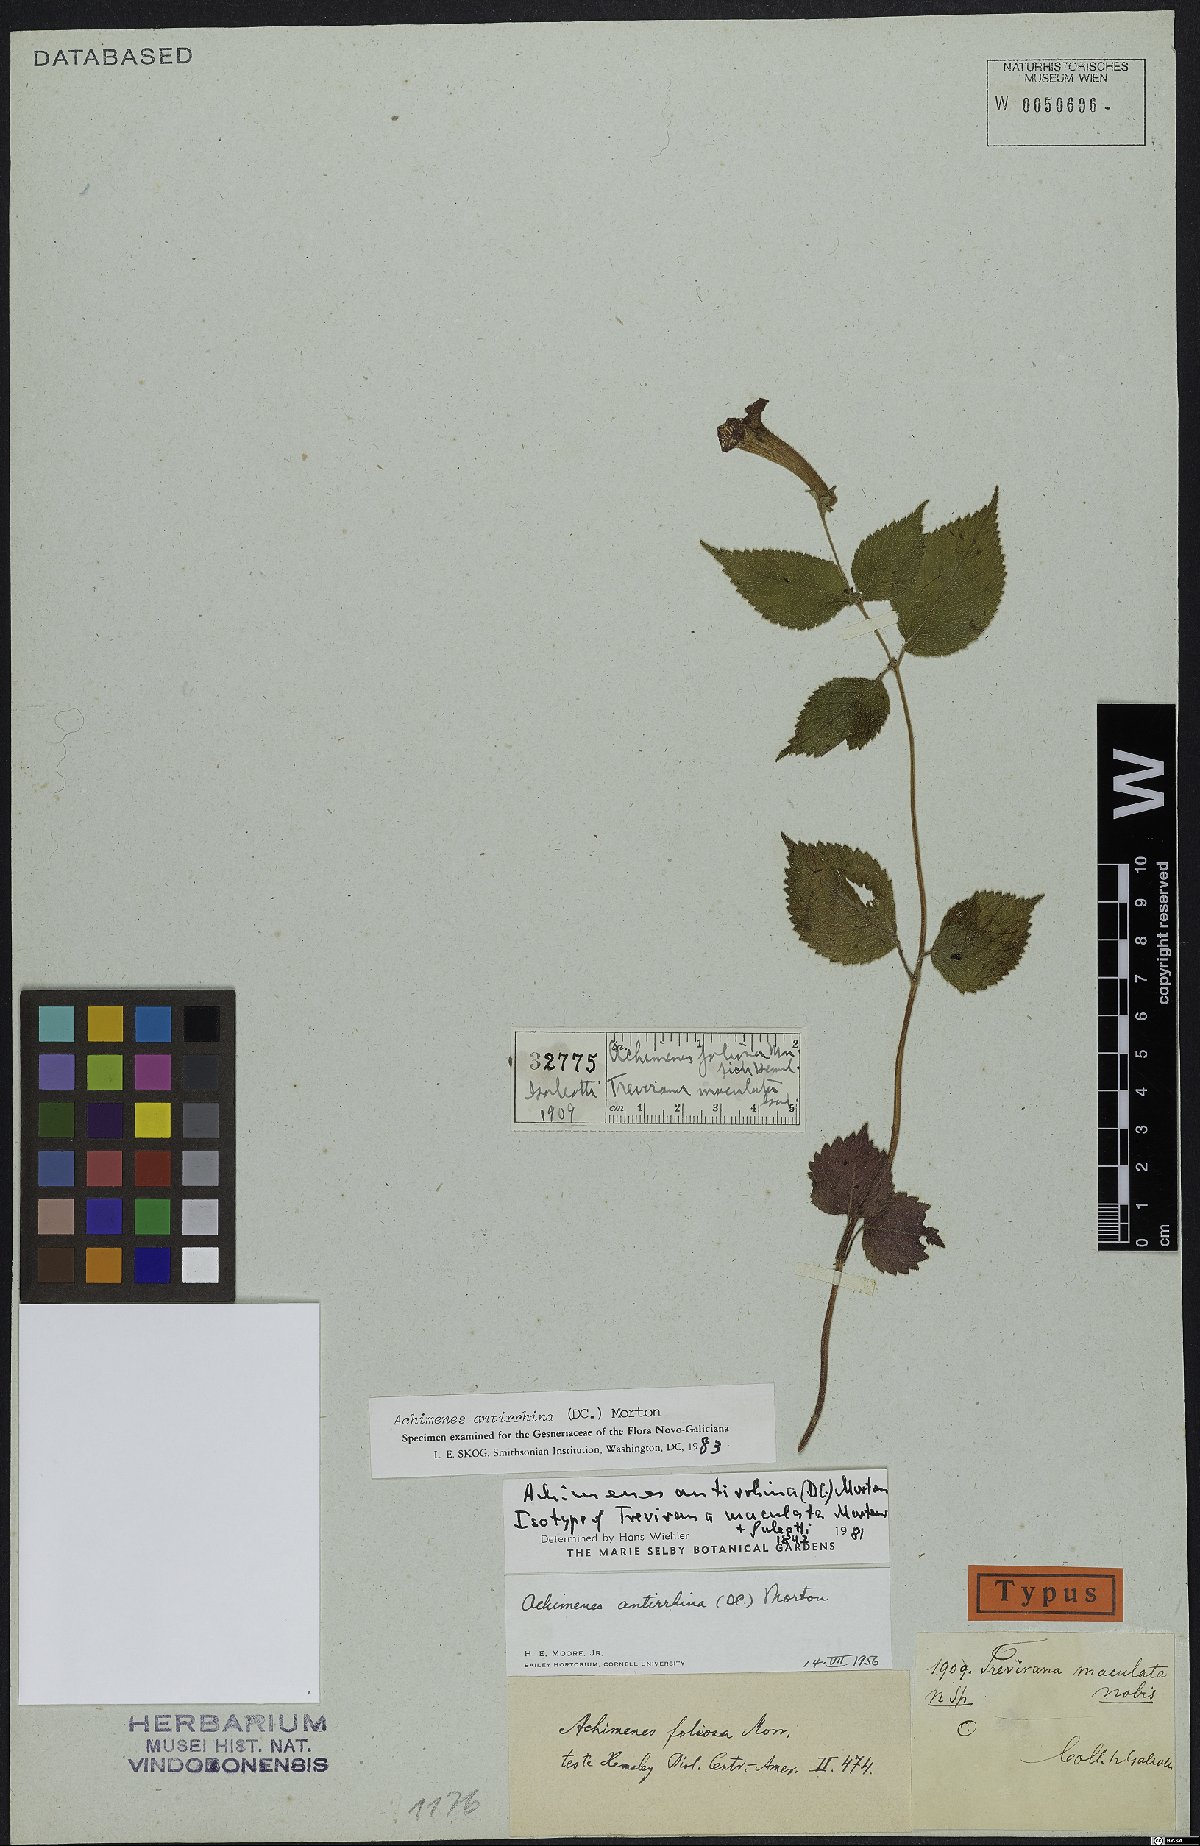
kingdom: Plantae
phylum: Tracheophyta
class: Magnoliopsida
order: Lamiales
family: Gesneriaceae
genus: Achimenes
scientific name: Achimenes antirrhina
